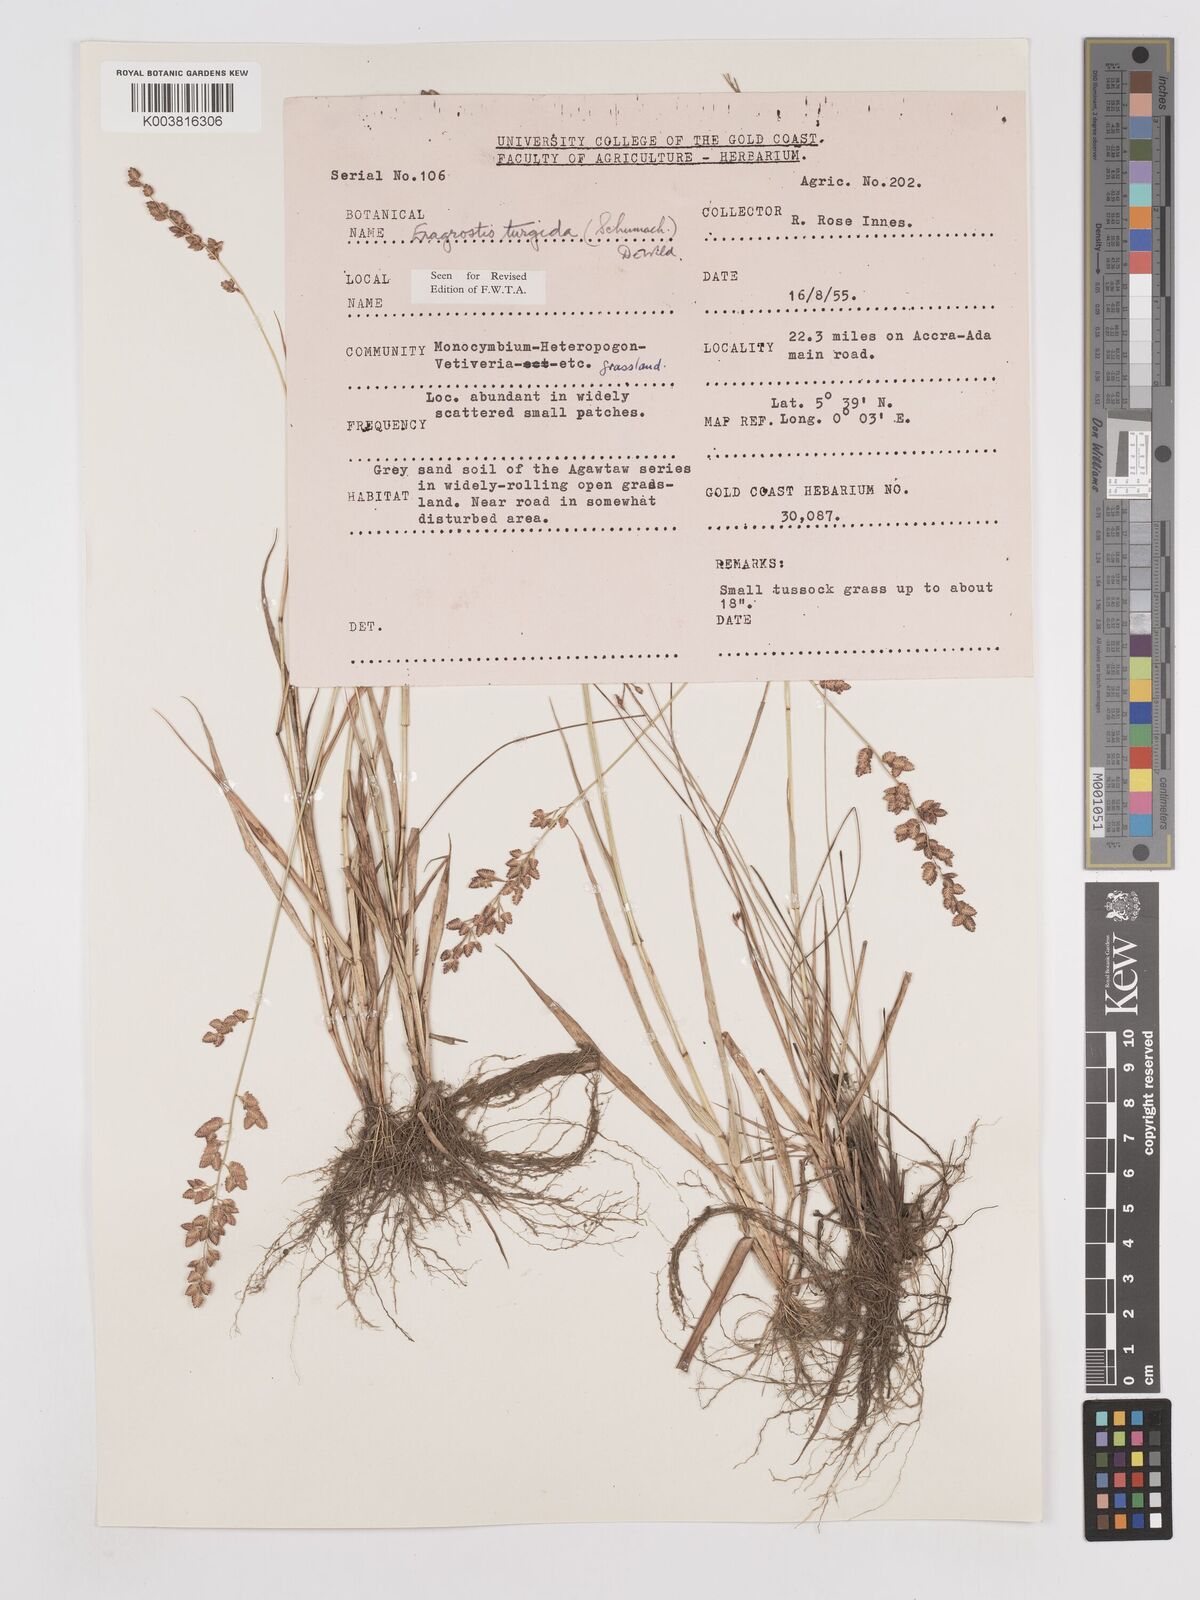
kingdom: Plantae
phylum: Tracheophyta
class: Liliopsida
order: Poales
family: Poaceae
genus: Eragrostis
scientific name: Eragrostis turgida
